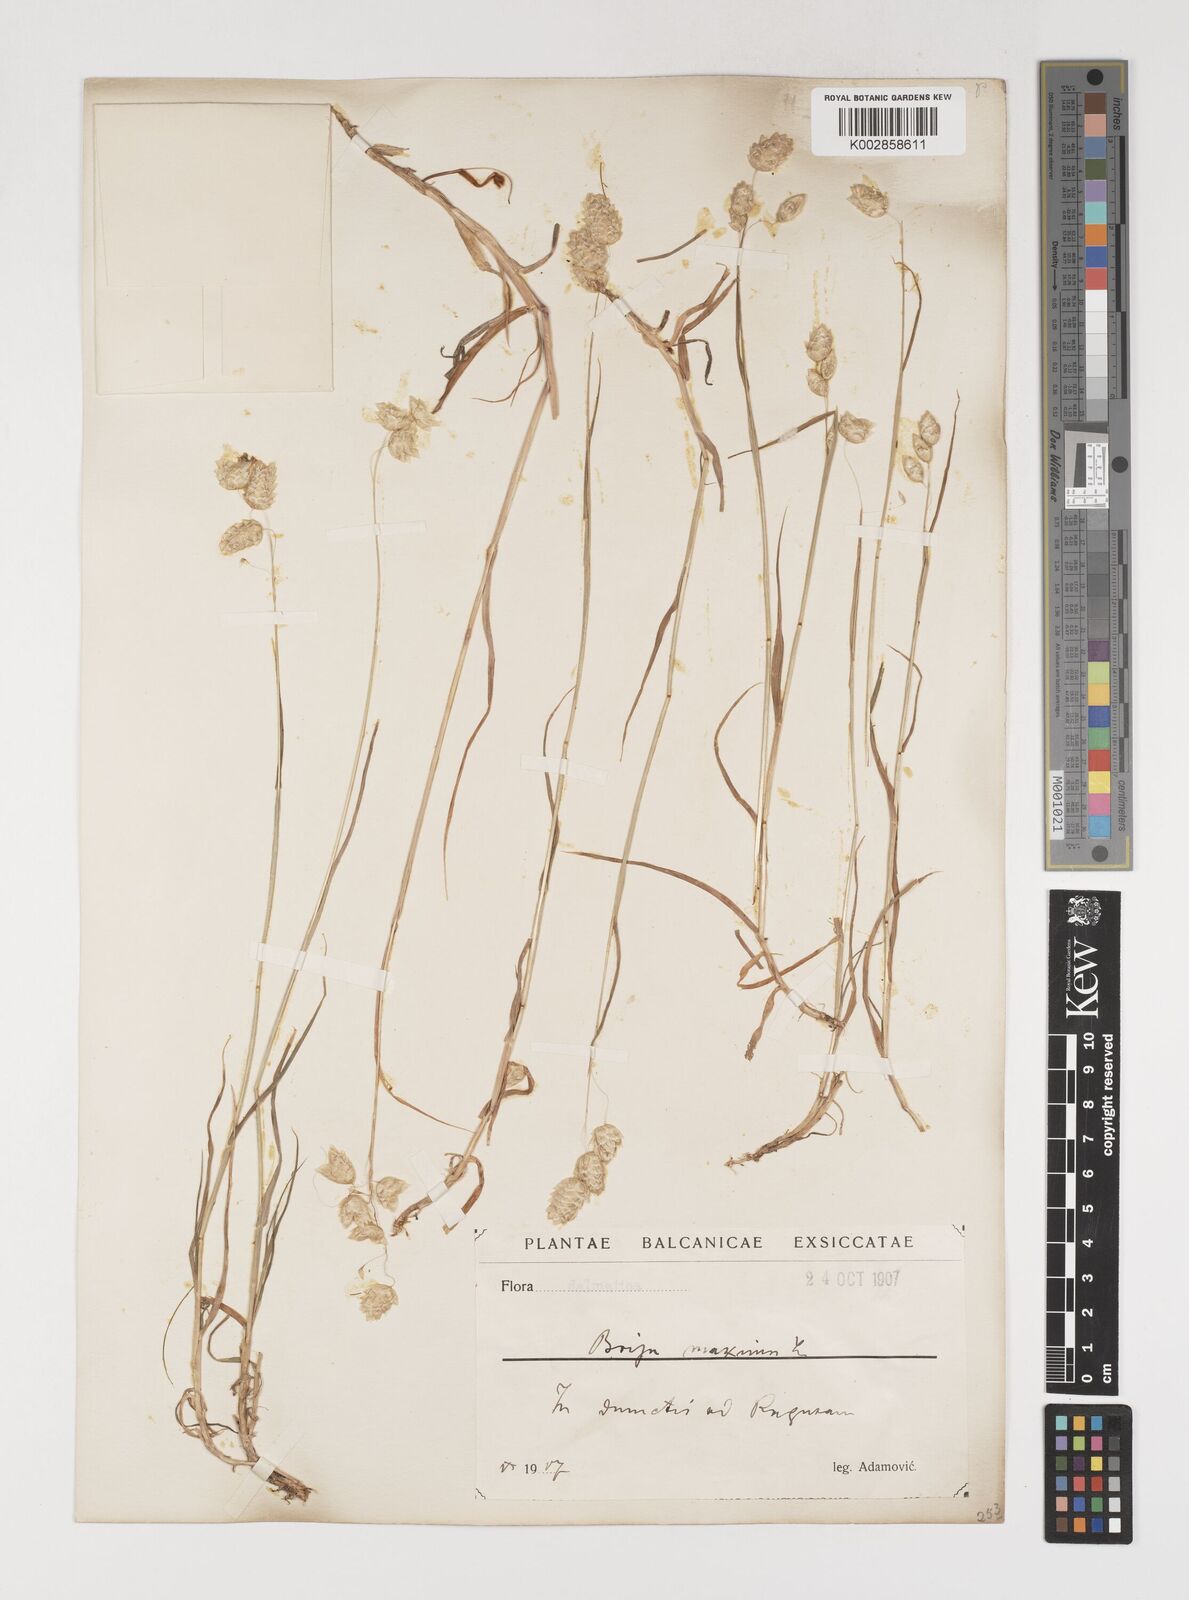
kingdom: Plantae
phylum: Tracheophyta
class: Liliopsida
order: Poales
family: Poaceae
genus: Briza
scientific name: Briza maxima
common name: Big quakinggrass
